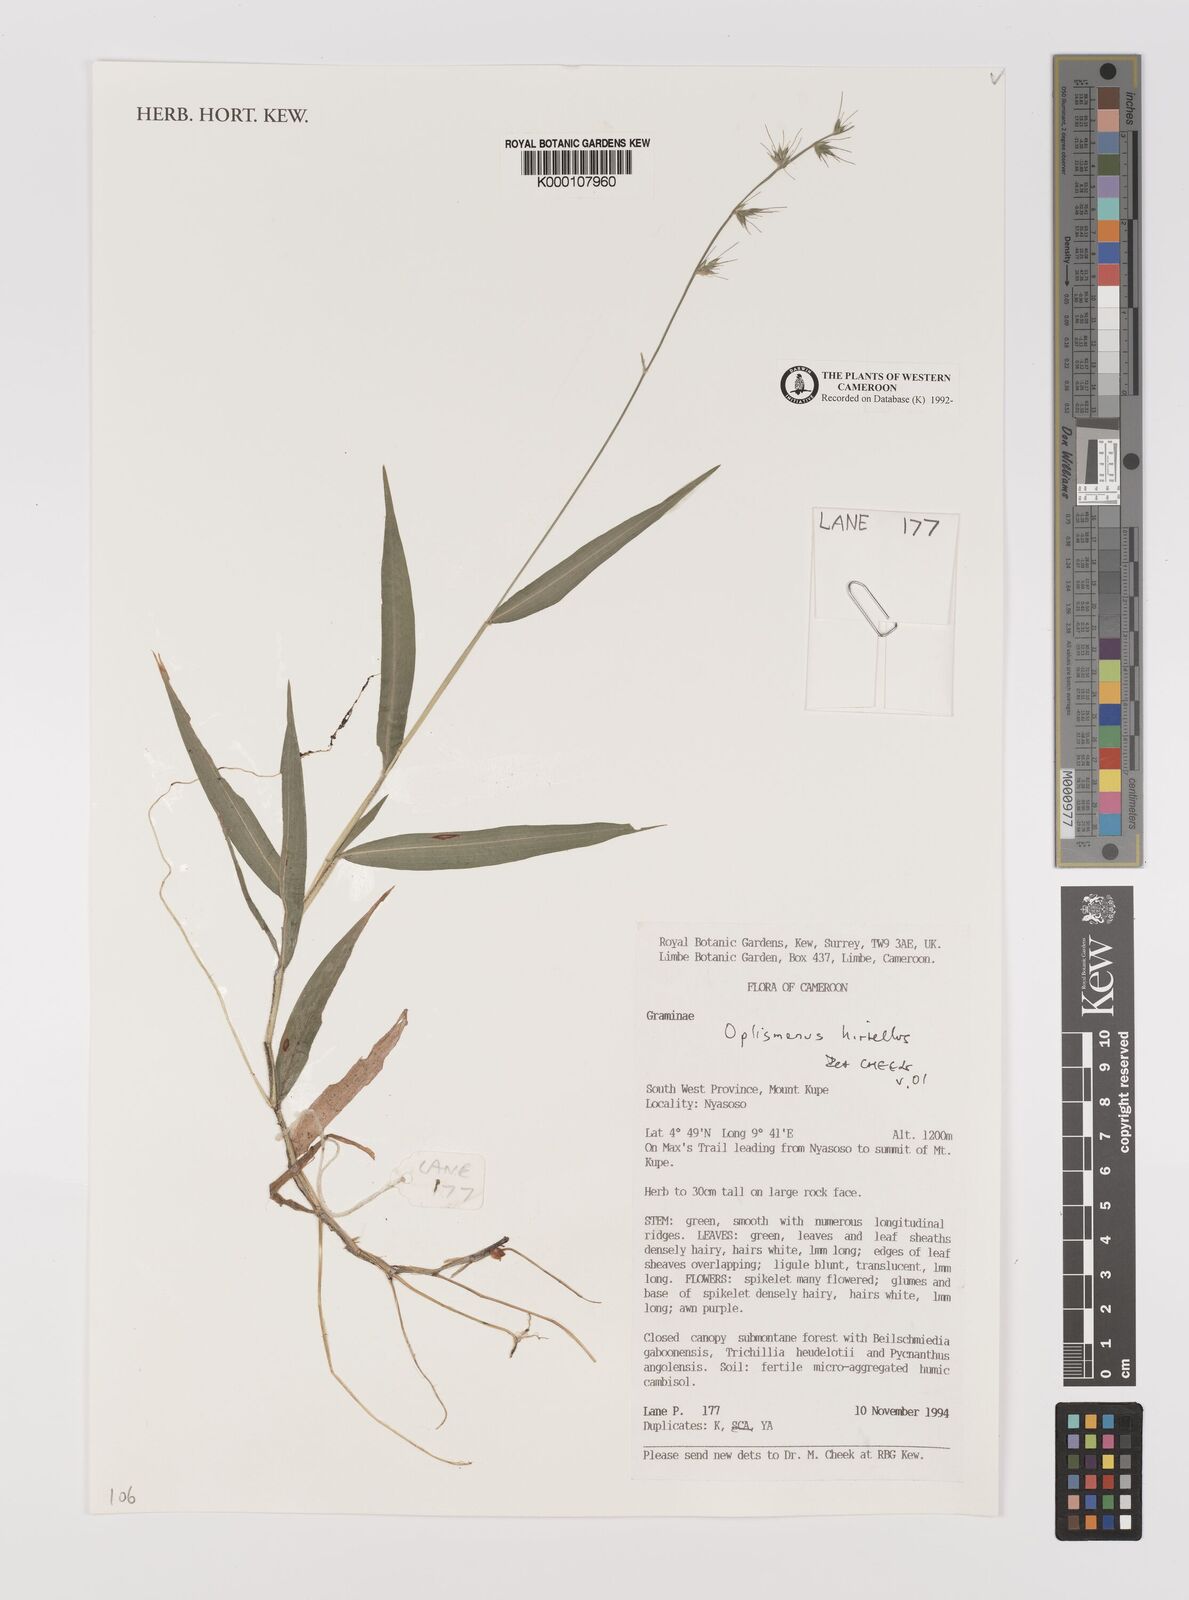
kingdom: Plantae
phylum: Tracheophyta
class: Liliopsida
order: Poales
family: Poaceae
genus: Oplismenus
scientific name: Oplismenus hirtellus
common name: Basketgrass
